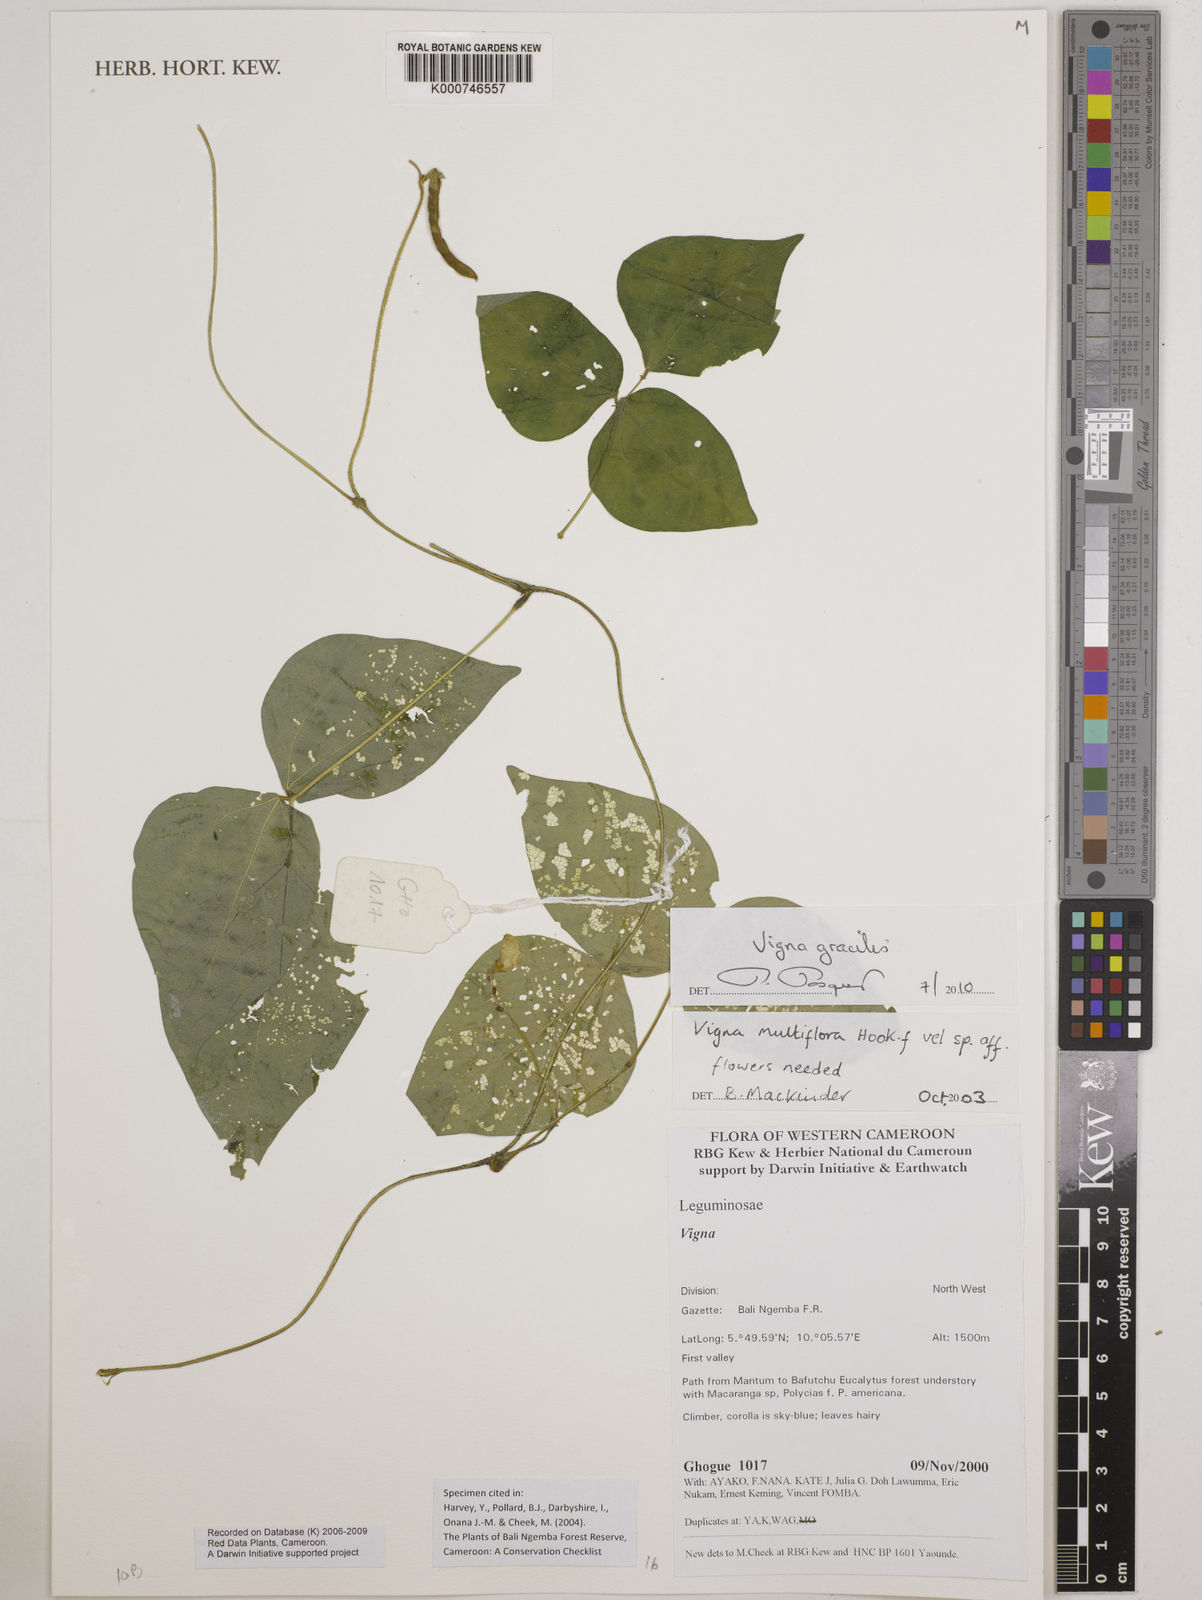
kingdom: Plantae
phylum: Tracheophyta
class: Magnoliopsida
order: Fabales
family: Fabaceae
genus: Vigna
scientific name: Vigna gracilis
